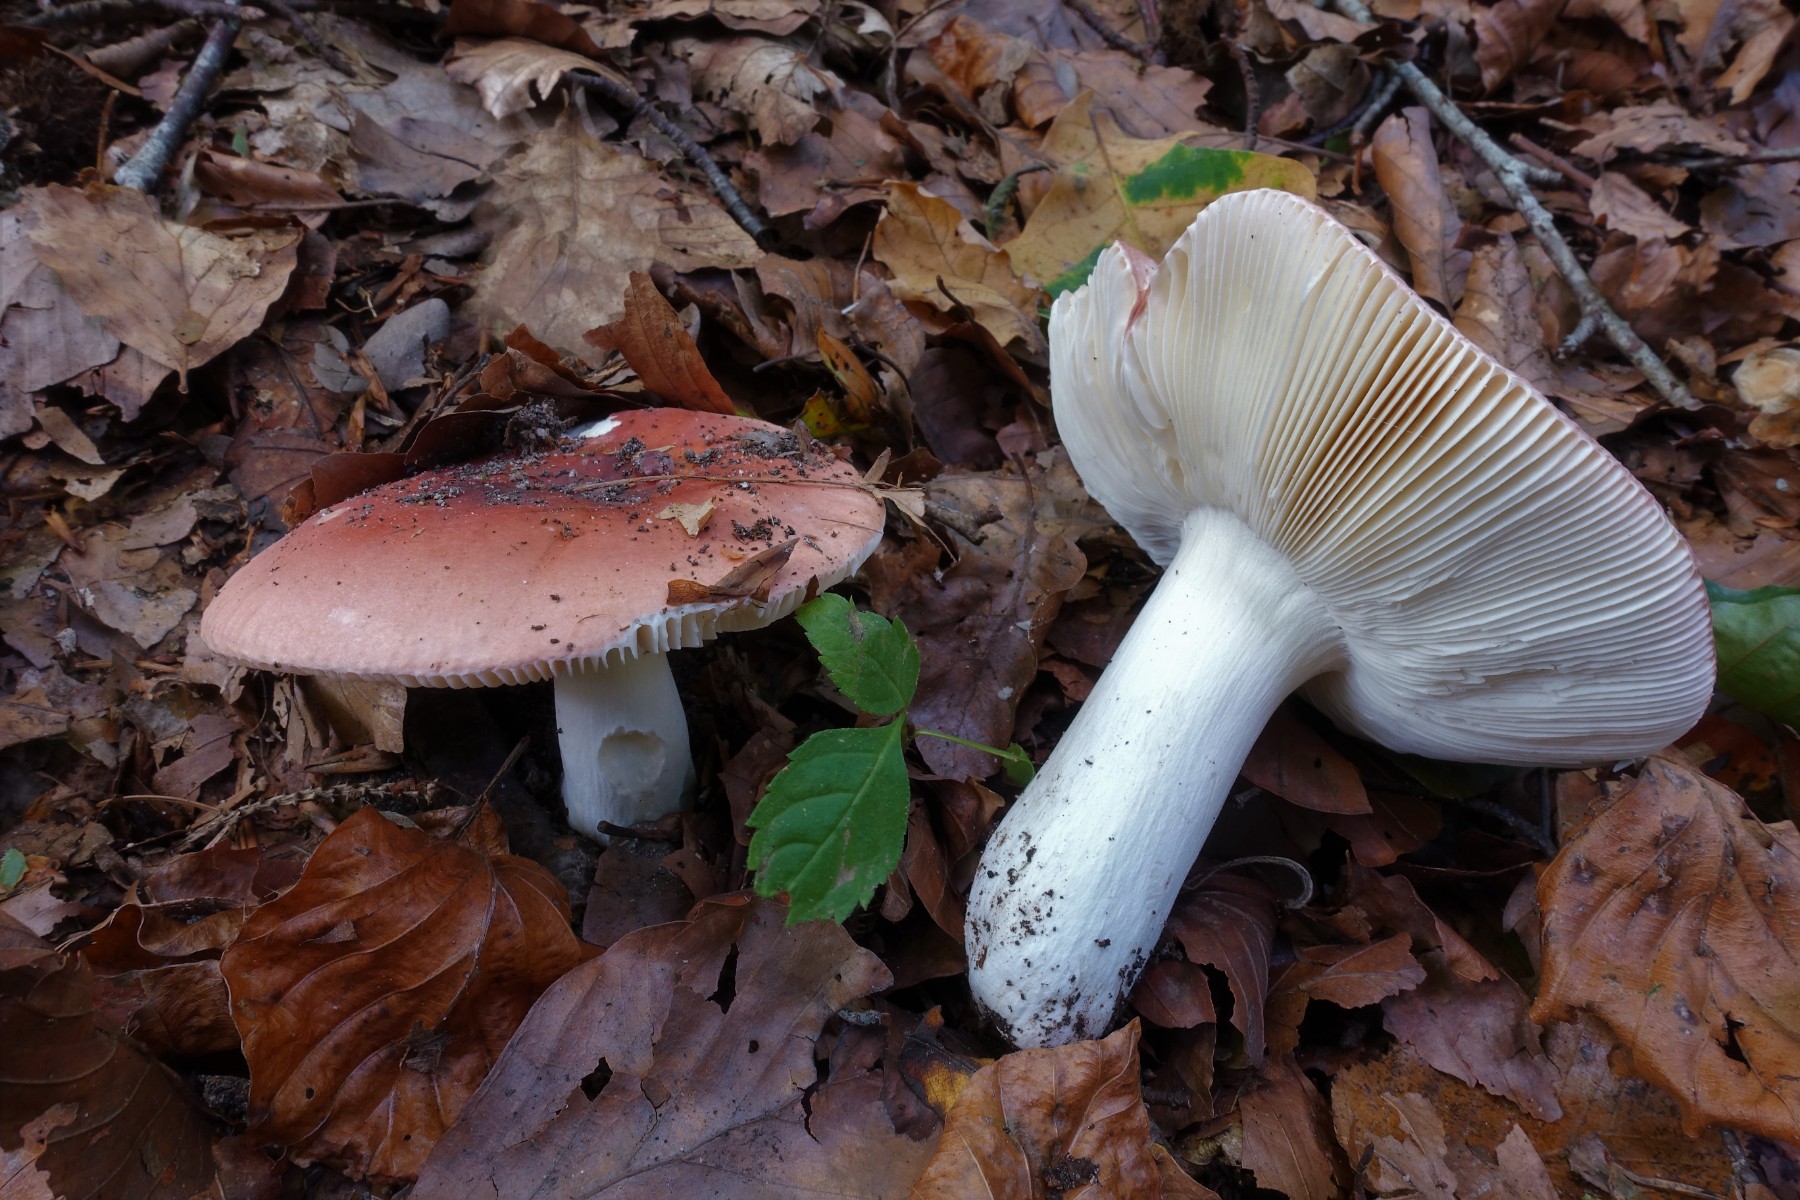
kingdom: Fungi
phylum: Basidiomycota
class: Agaricomycetes
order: Russulales
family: Russulaceae
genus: Russula
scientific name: Russula aurora
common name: rosa skørhat
